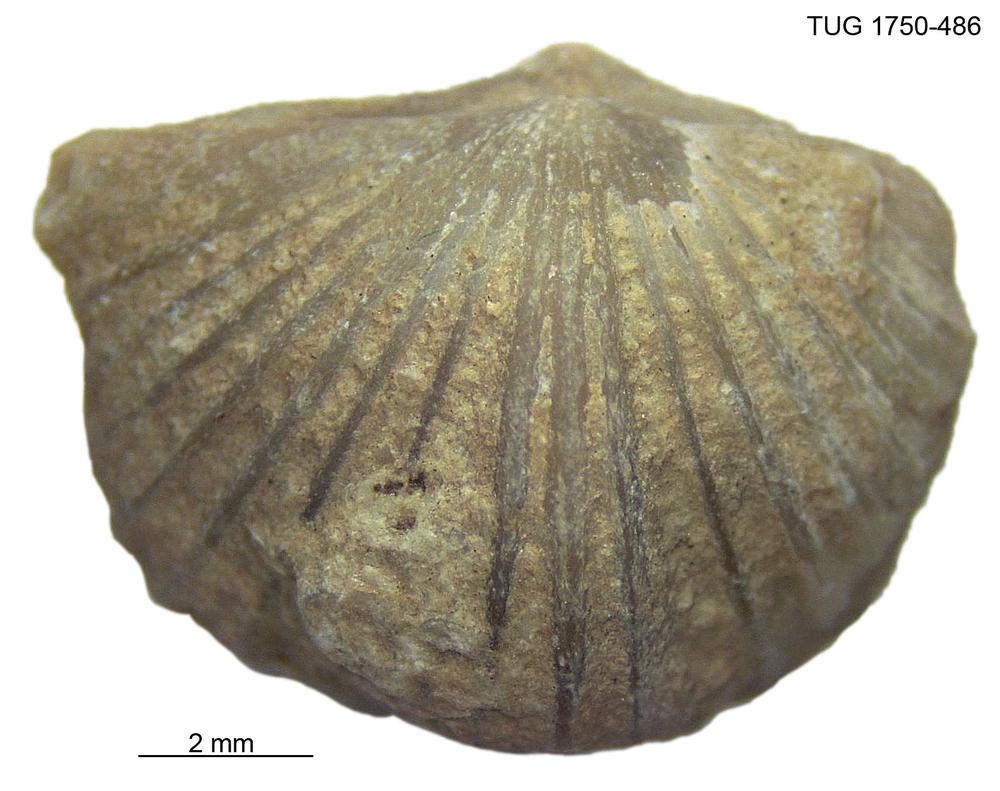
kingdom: Animalia
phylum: Brachiopoda
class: Rhynchonellata
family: Plectorthidae
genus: Platystrophia
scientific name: Platystrophia
